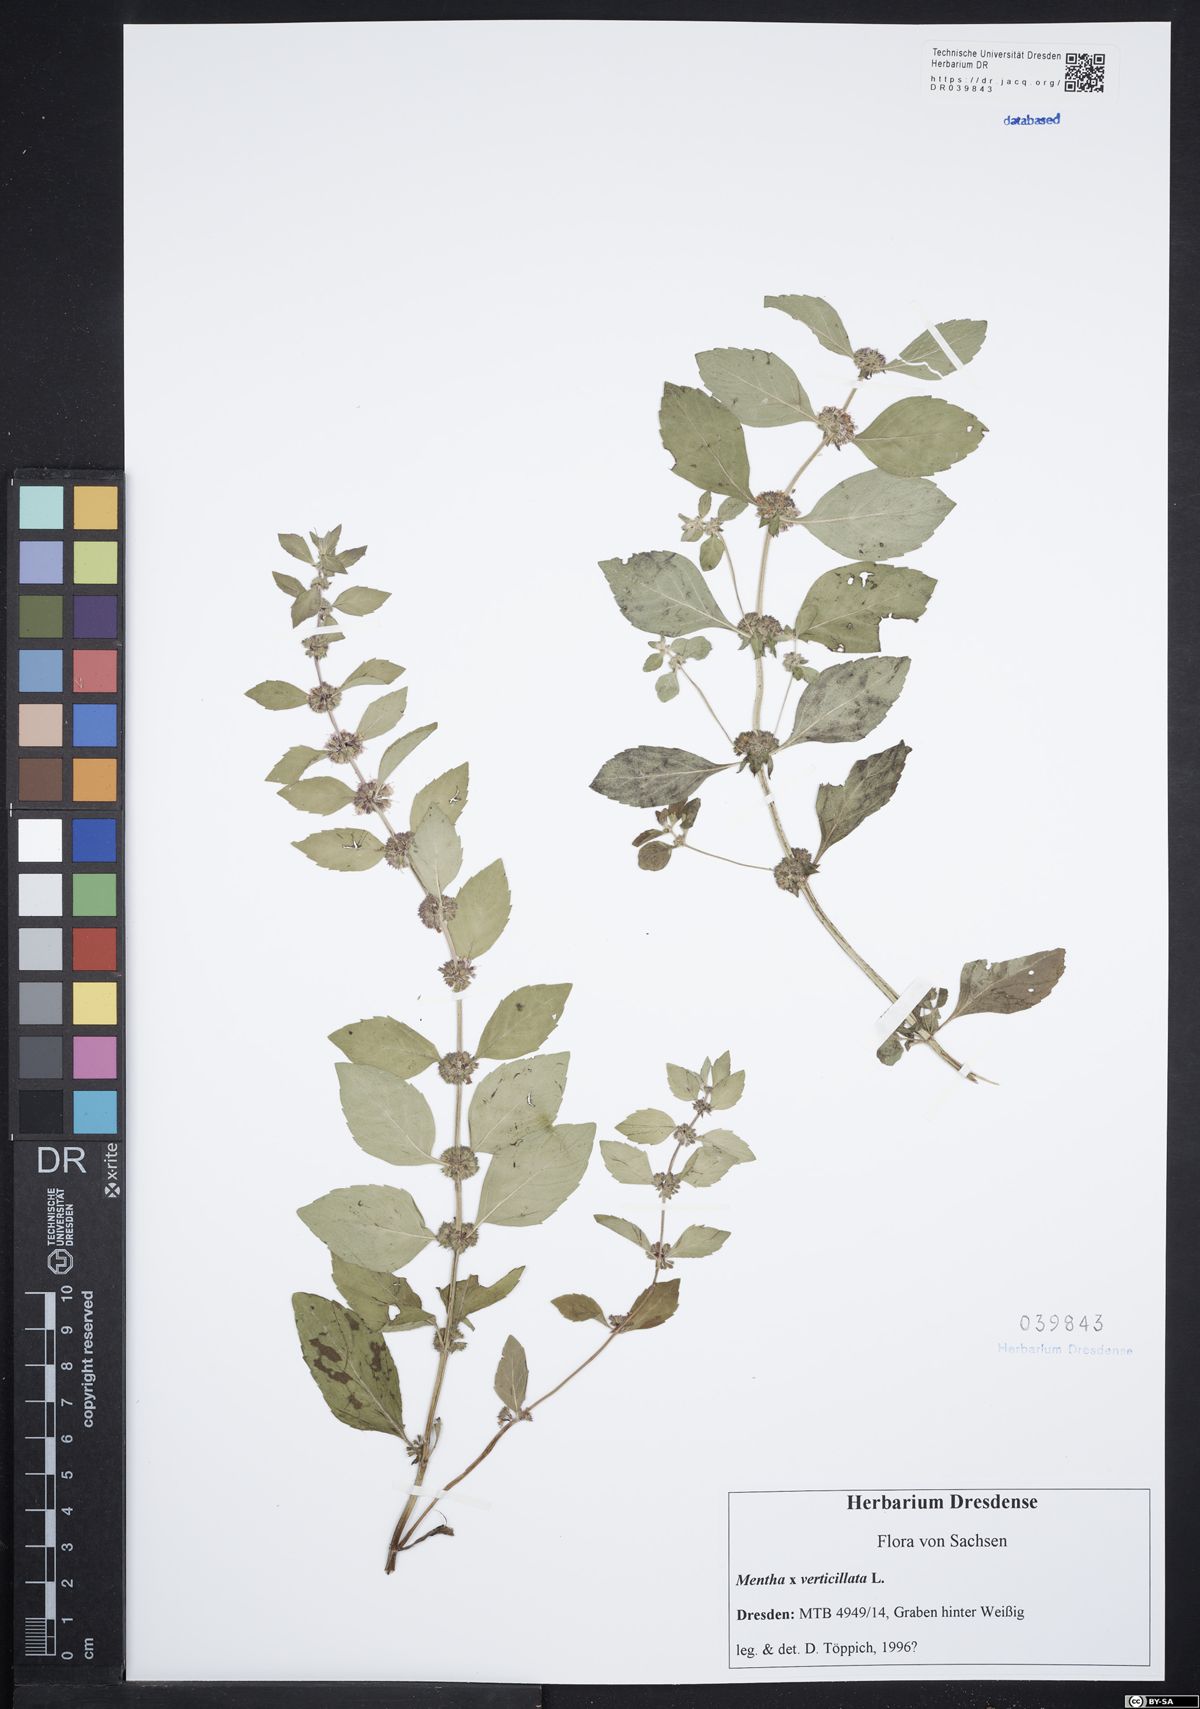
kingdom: Plantae
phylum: Tracheophyta
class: Magnoliopsida
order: Lamiales
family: Lamiaceae
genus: Mentha
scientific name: Mentha verticillata
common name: Mint
